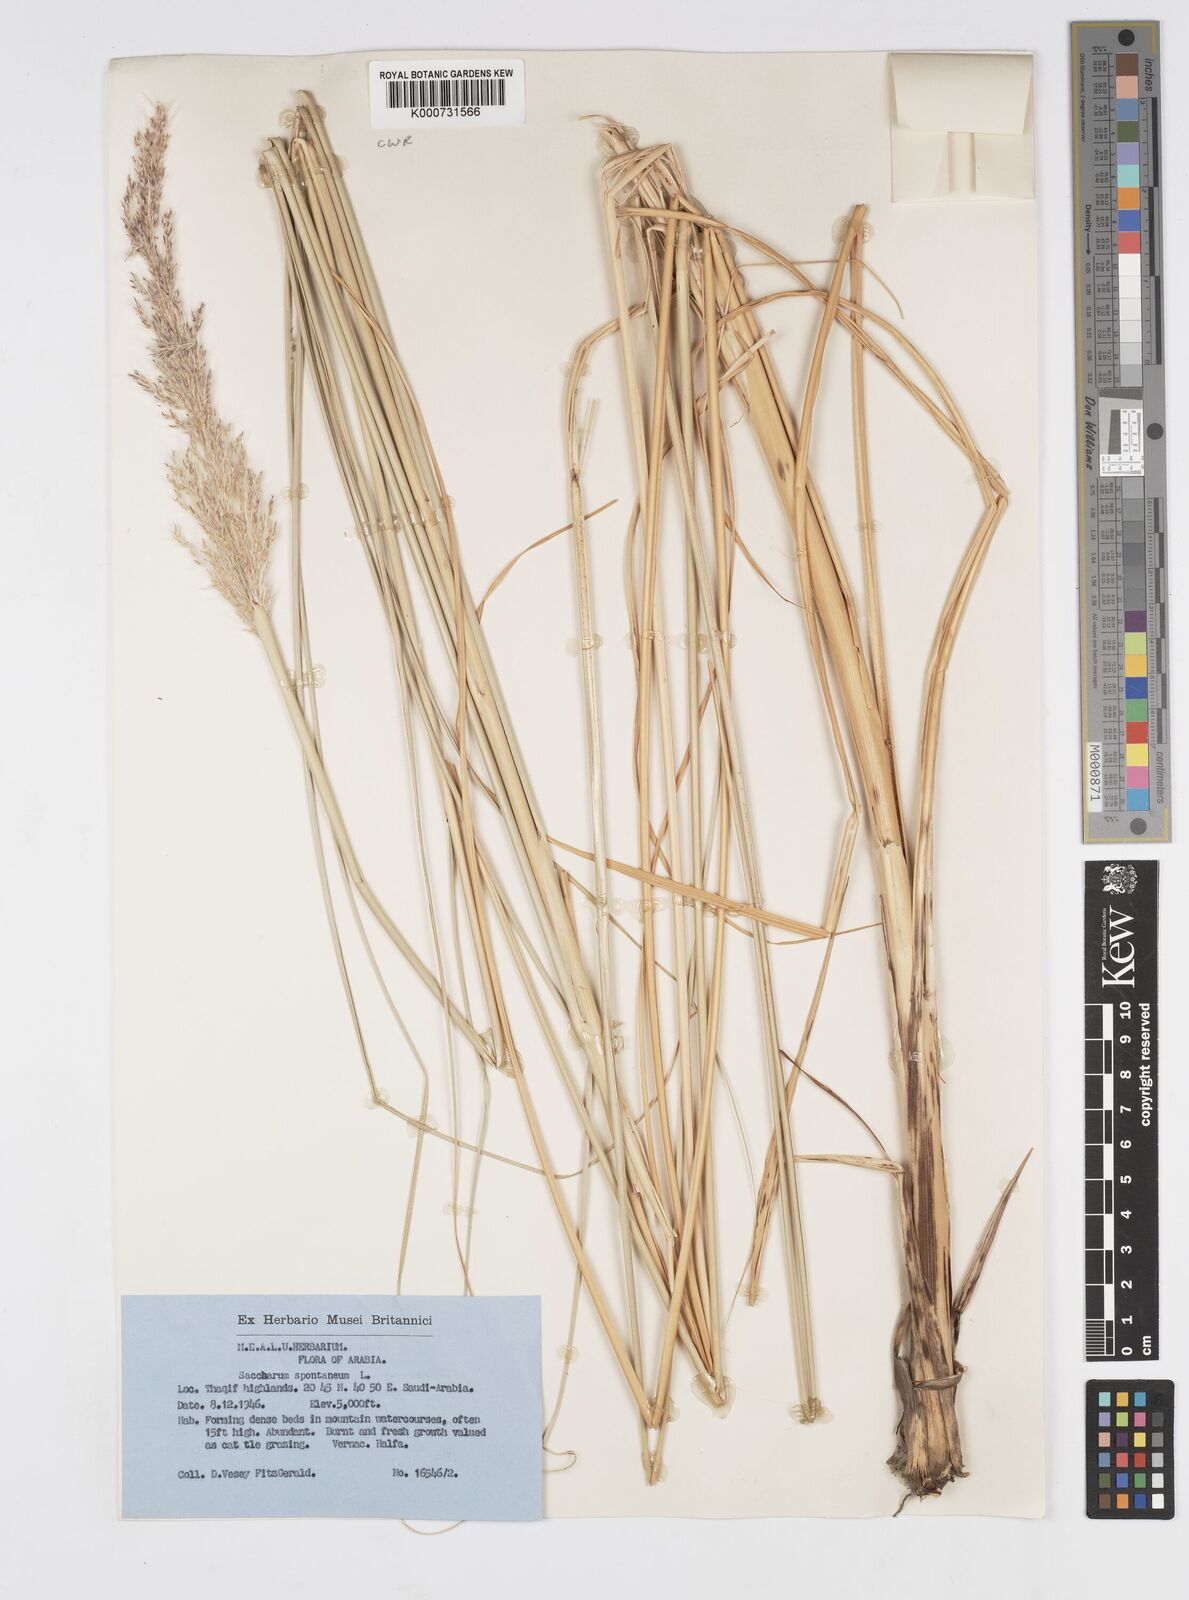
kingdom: Plantae
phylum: Tracheophyta
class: Liliopsida
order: Poales
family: Poaceae
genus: Saccharum
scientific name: Saccharum spontaneum
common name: Wild sugarcane
